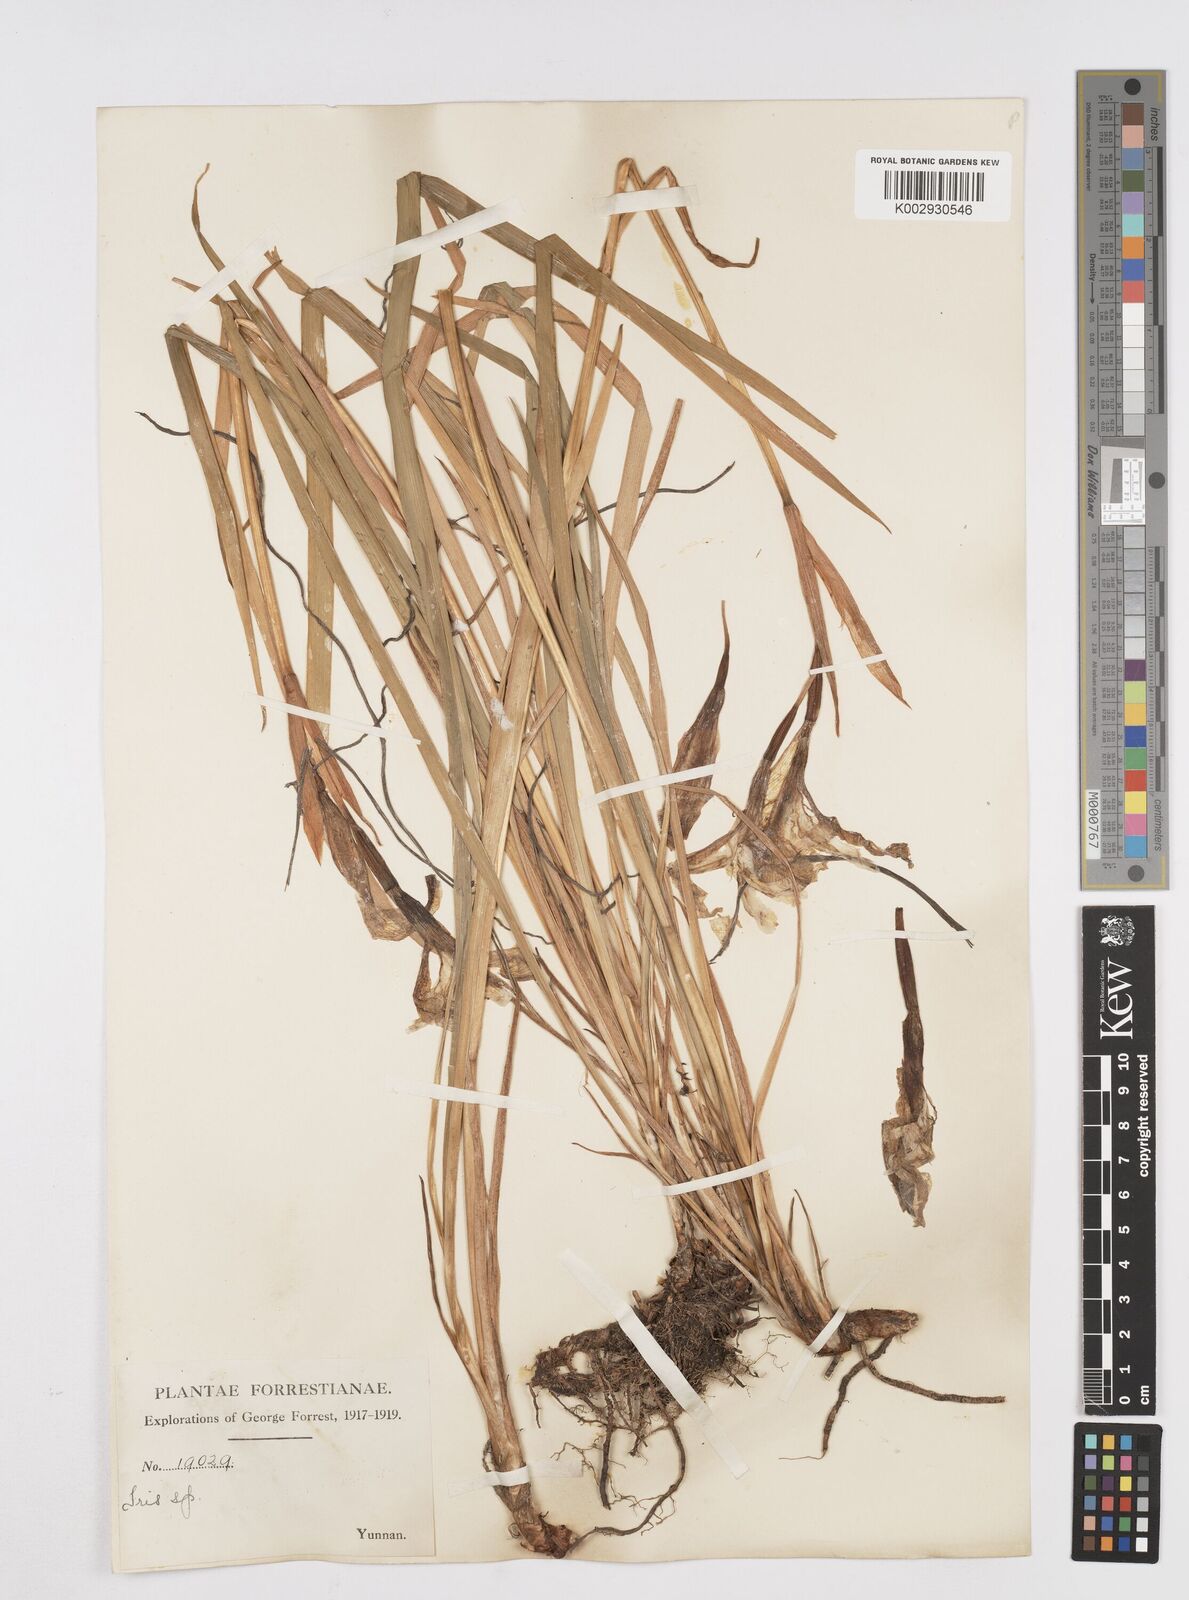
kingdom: Plantae
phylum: Tracheophyta
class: Liliopsida
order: Asparagales
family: Iridaceae
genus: Iris
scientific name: Iris bulleyana
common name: Southwest iris
